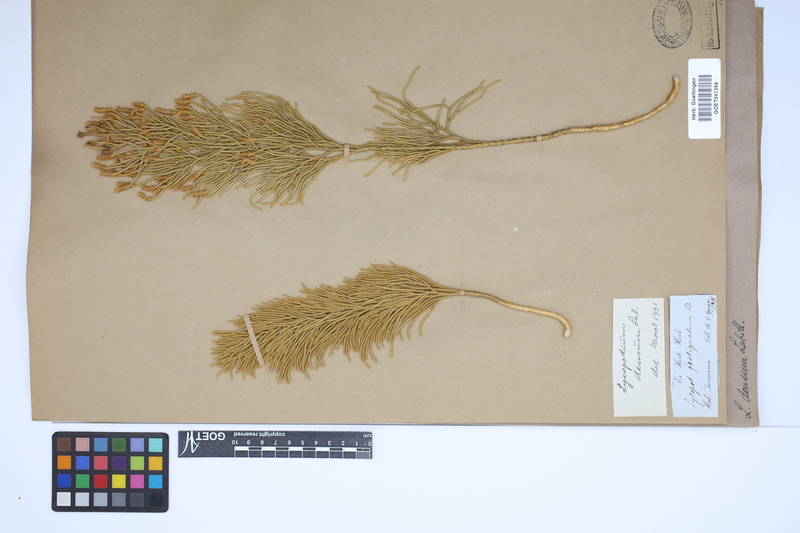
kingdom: Plantae
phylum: Tracheophyta
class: Lycopodiopsida
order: Lycopodiales
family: Lycopodiaceae
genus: Pseudolycopodium
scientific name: Pseudolycopodium densum
